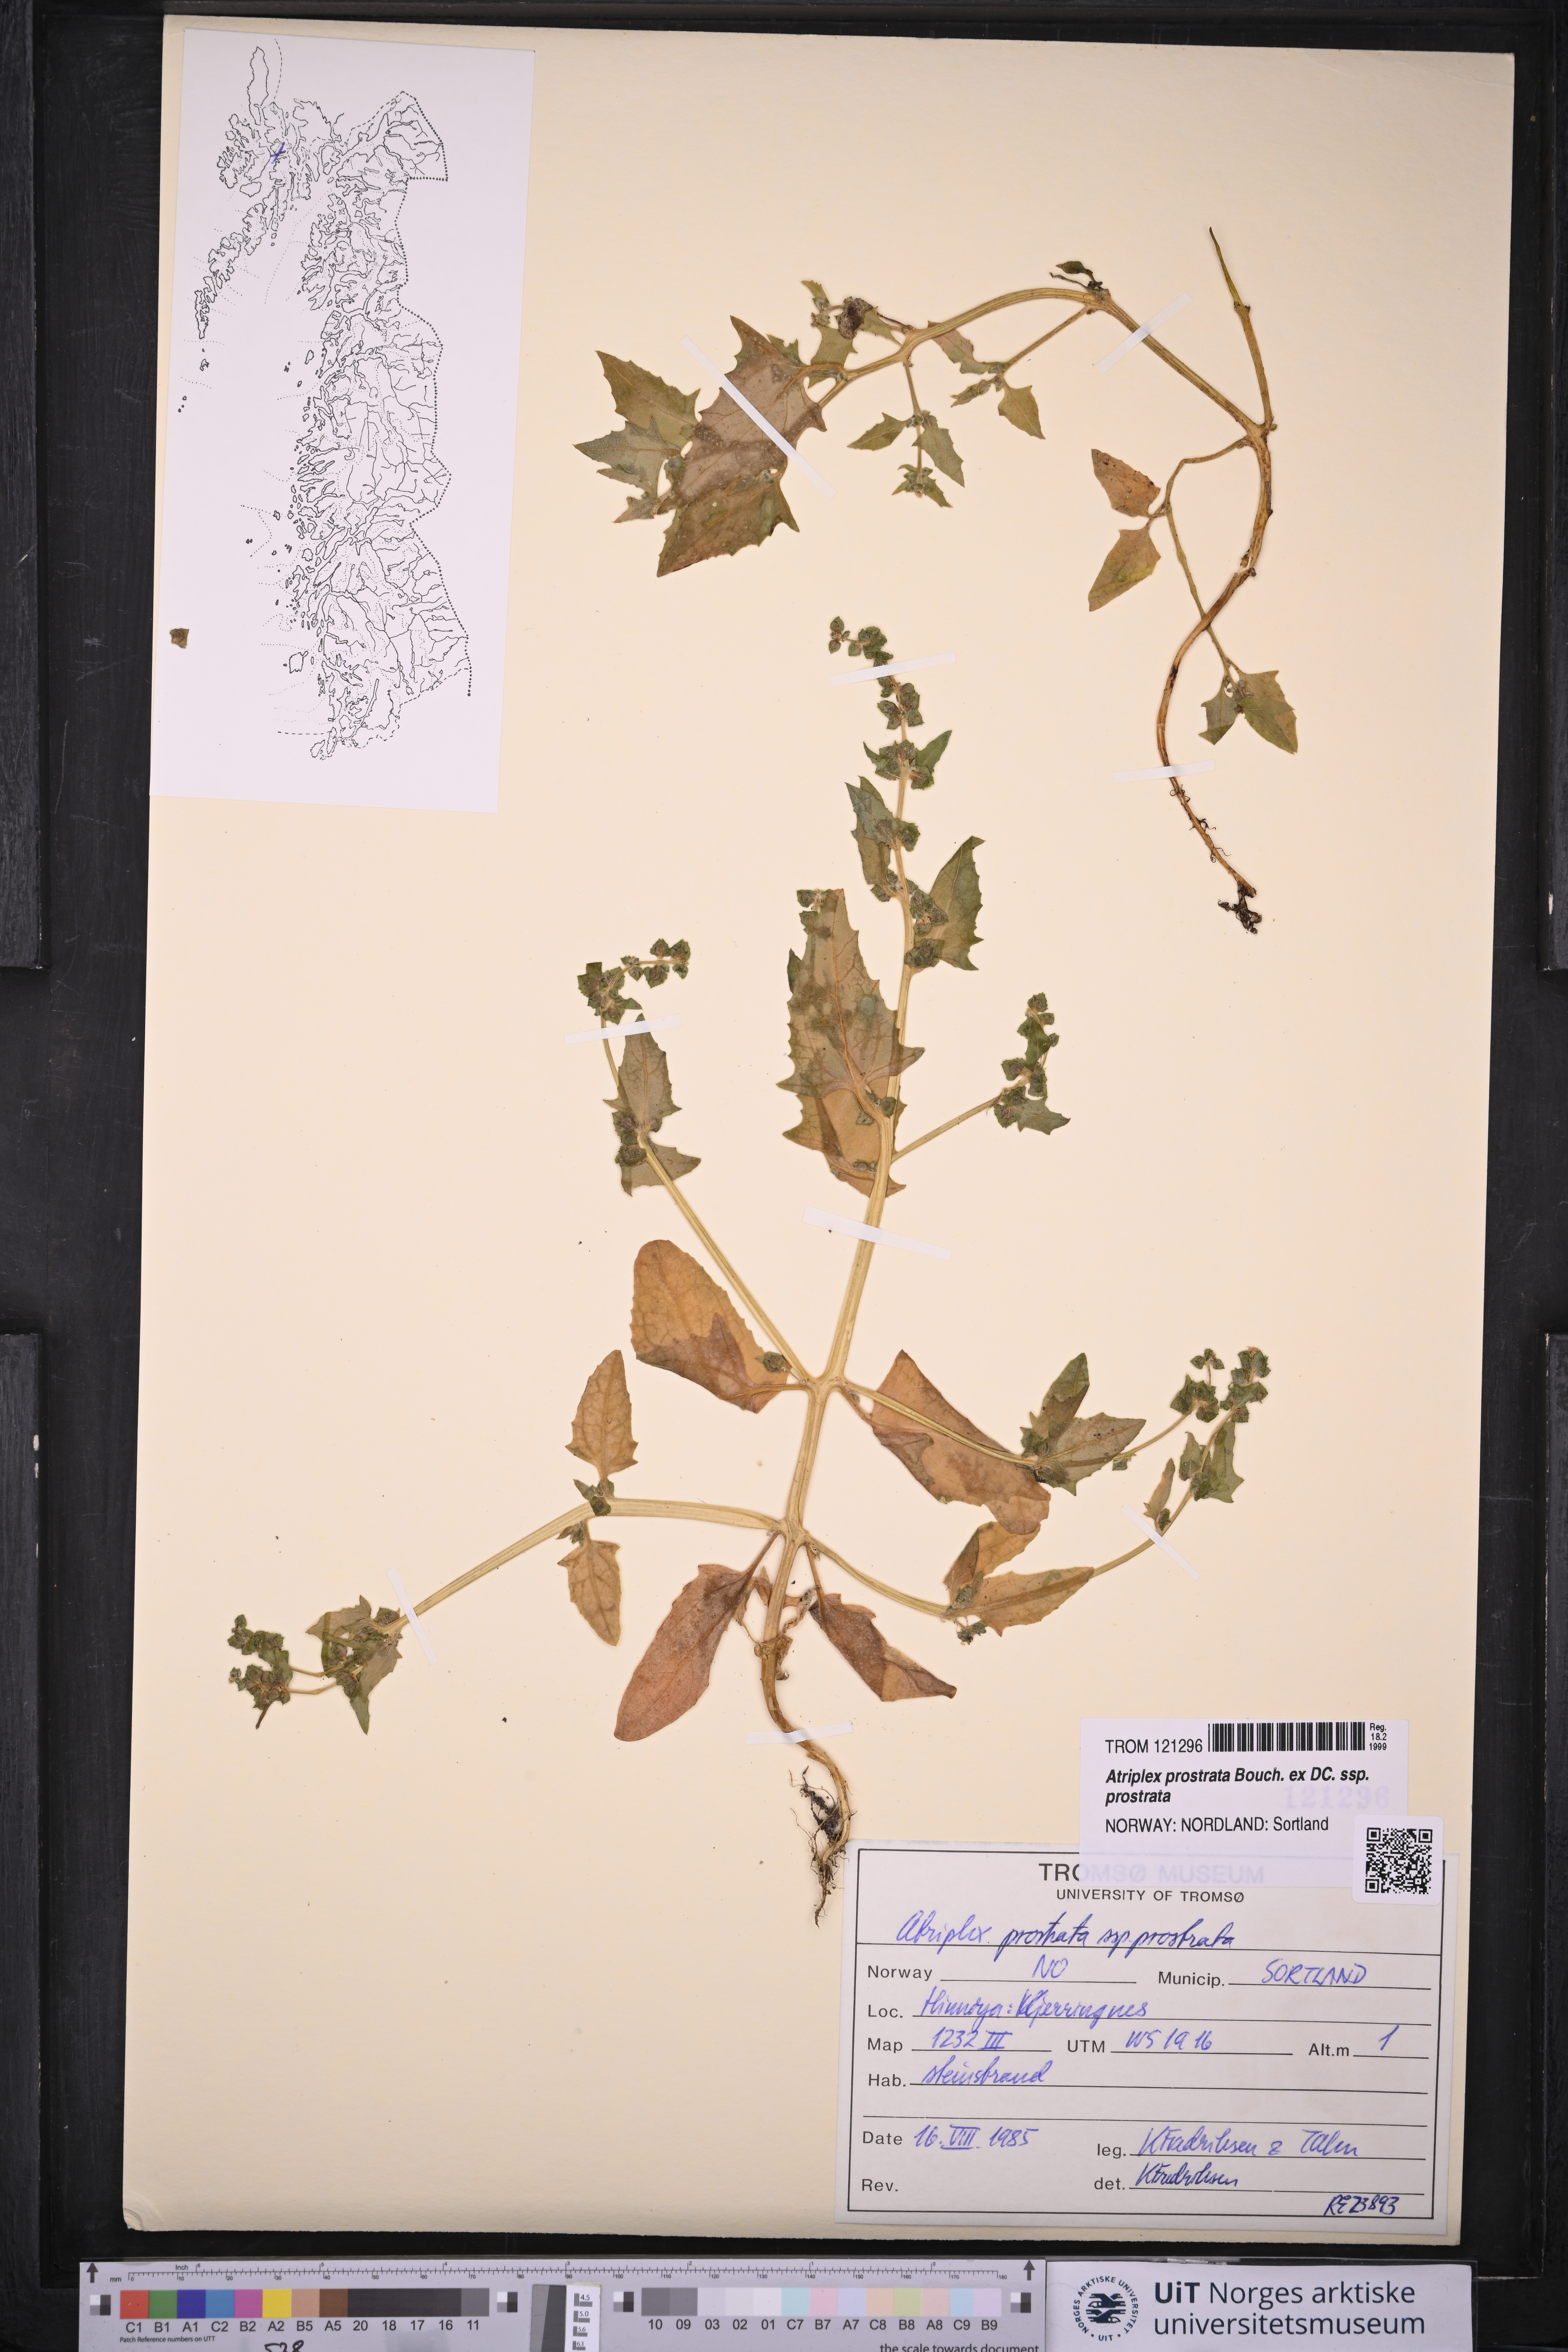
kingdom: Plantae
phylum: Tracheophyta
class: Magnoliopsida
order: Caryophyllales
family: Amaranthaceae
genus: Atriplex
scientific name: Atriplex prostrata
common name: Spear-leaved orache
